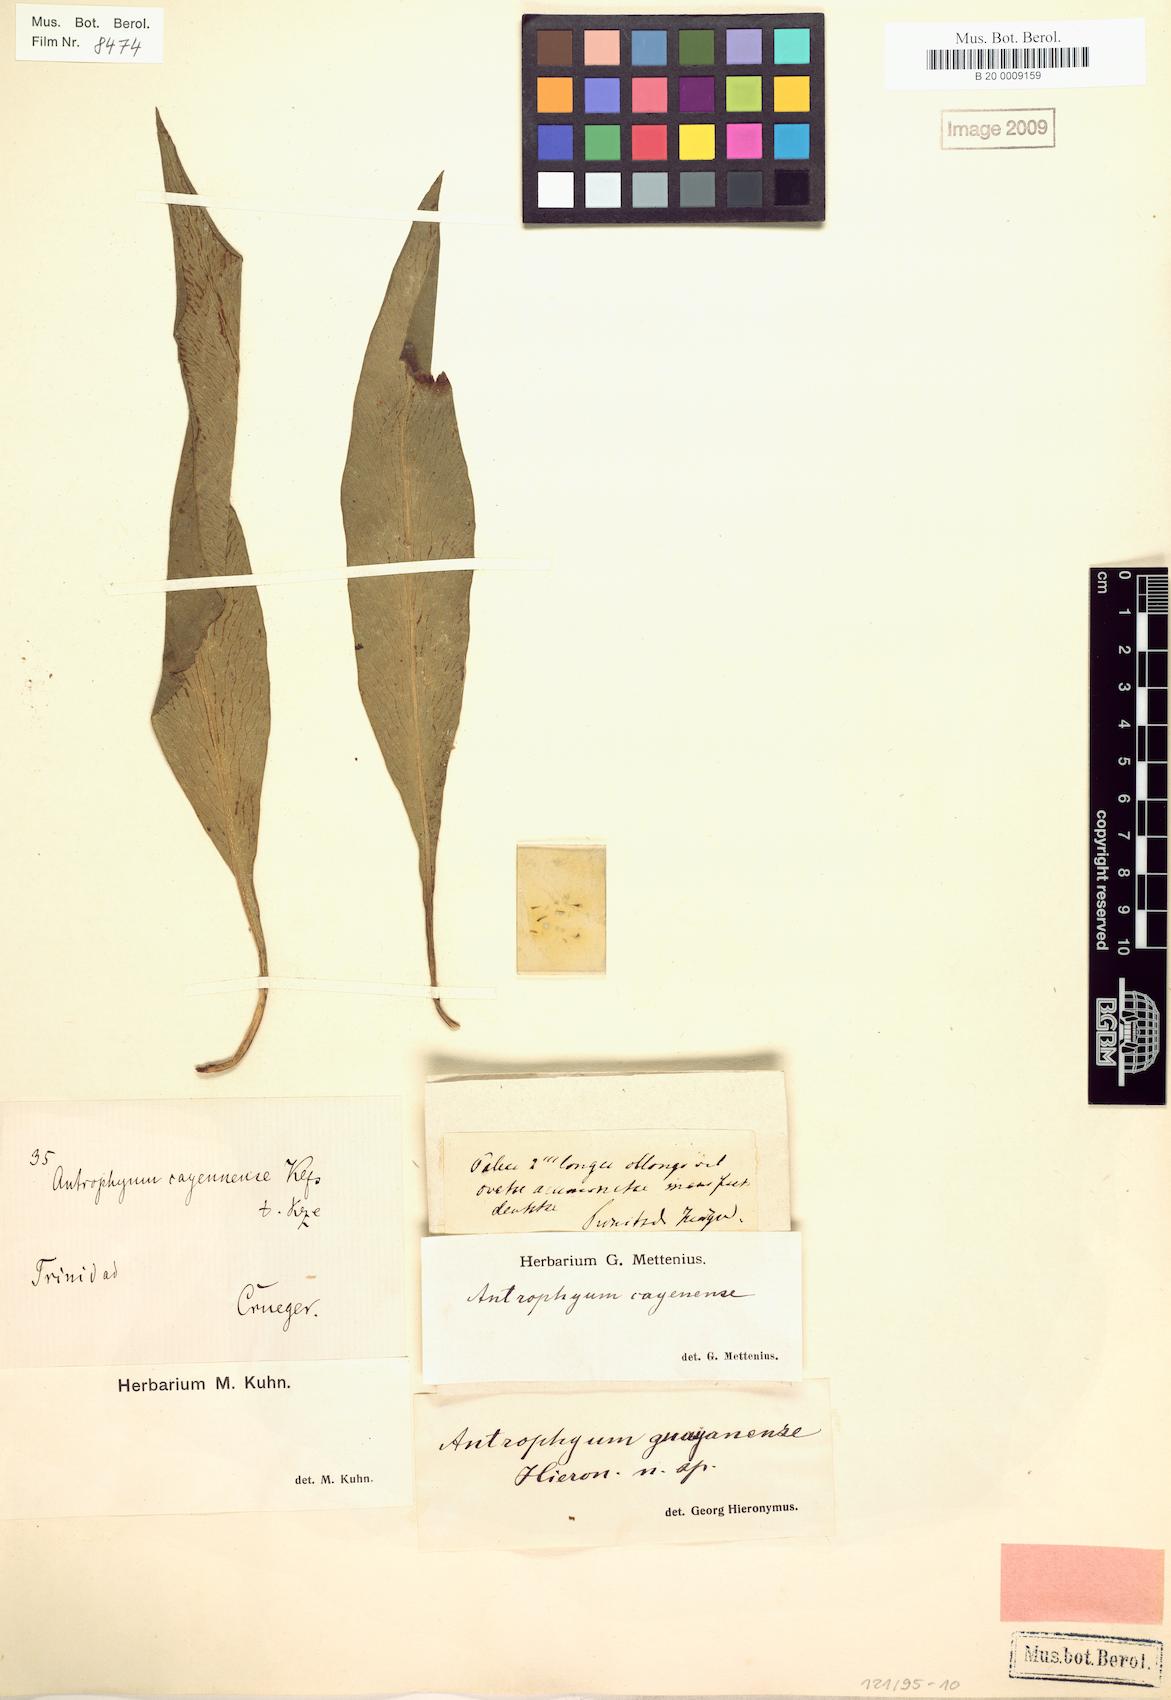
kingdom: Plantae
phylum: Tracheophyta
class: Polypodiopsida
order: Polypodiales
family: Pteridaceae
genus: Polytaenium
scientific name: Polytaenium guayanense
